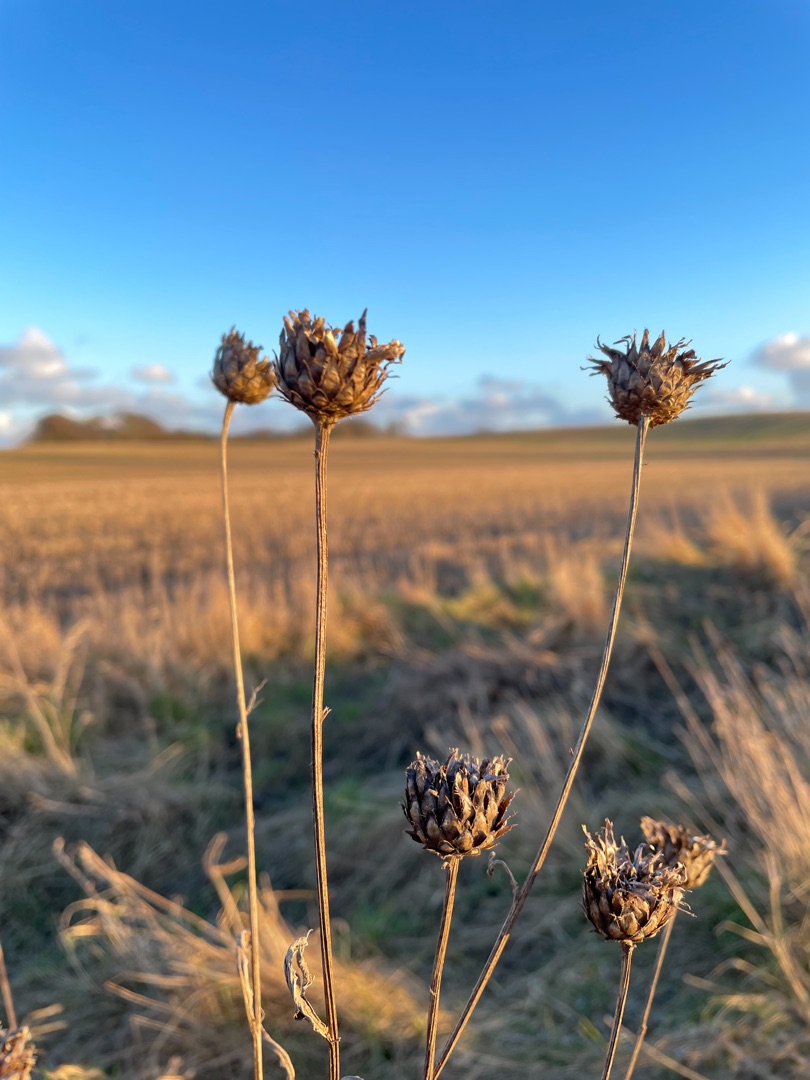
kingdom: Plantae
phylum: Tracheophyta
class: Magnoliopsida
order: Asterales
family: Asteraceae
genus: Centaurea
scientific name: Centaurea scabiosa
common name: Stor knopurt
